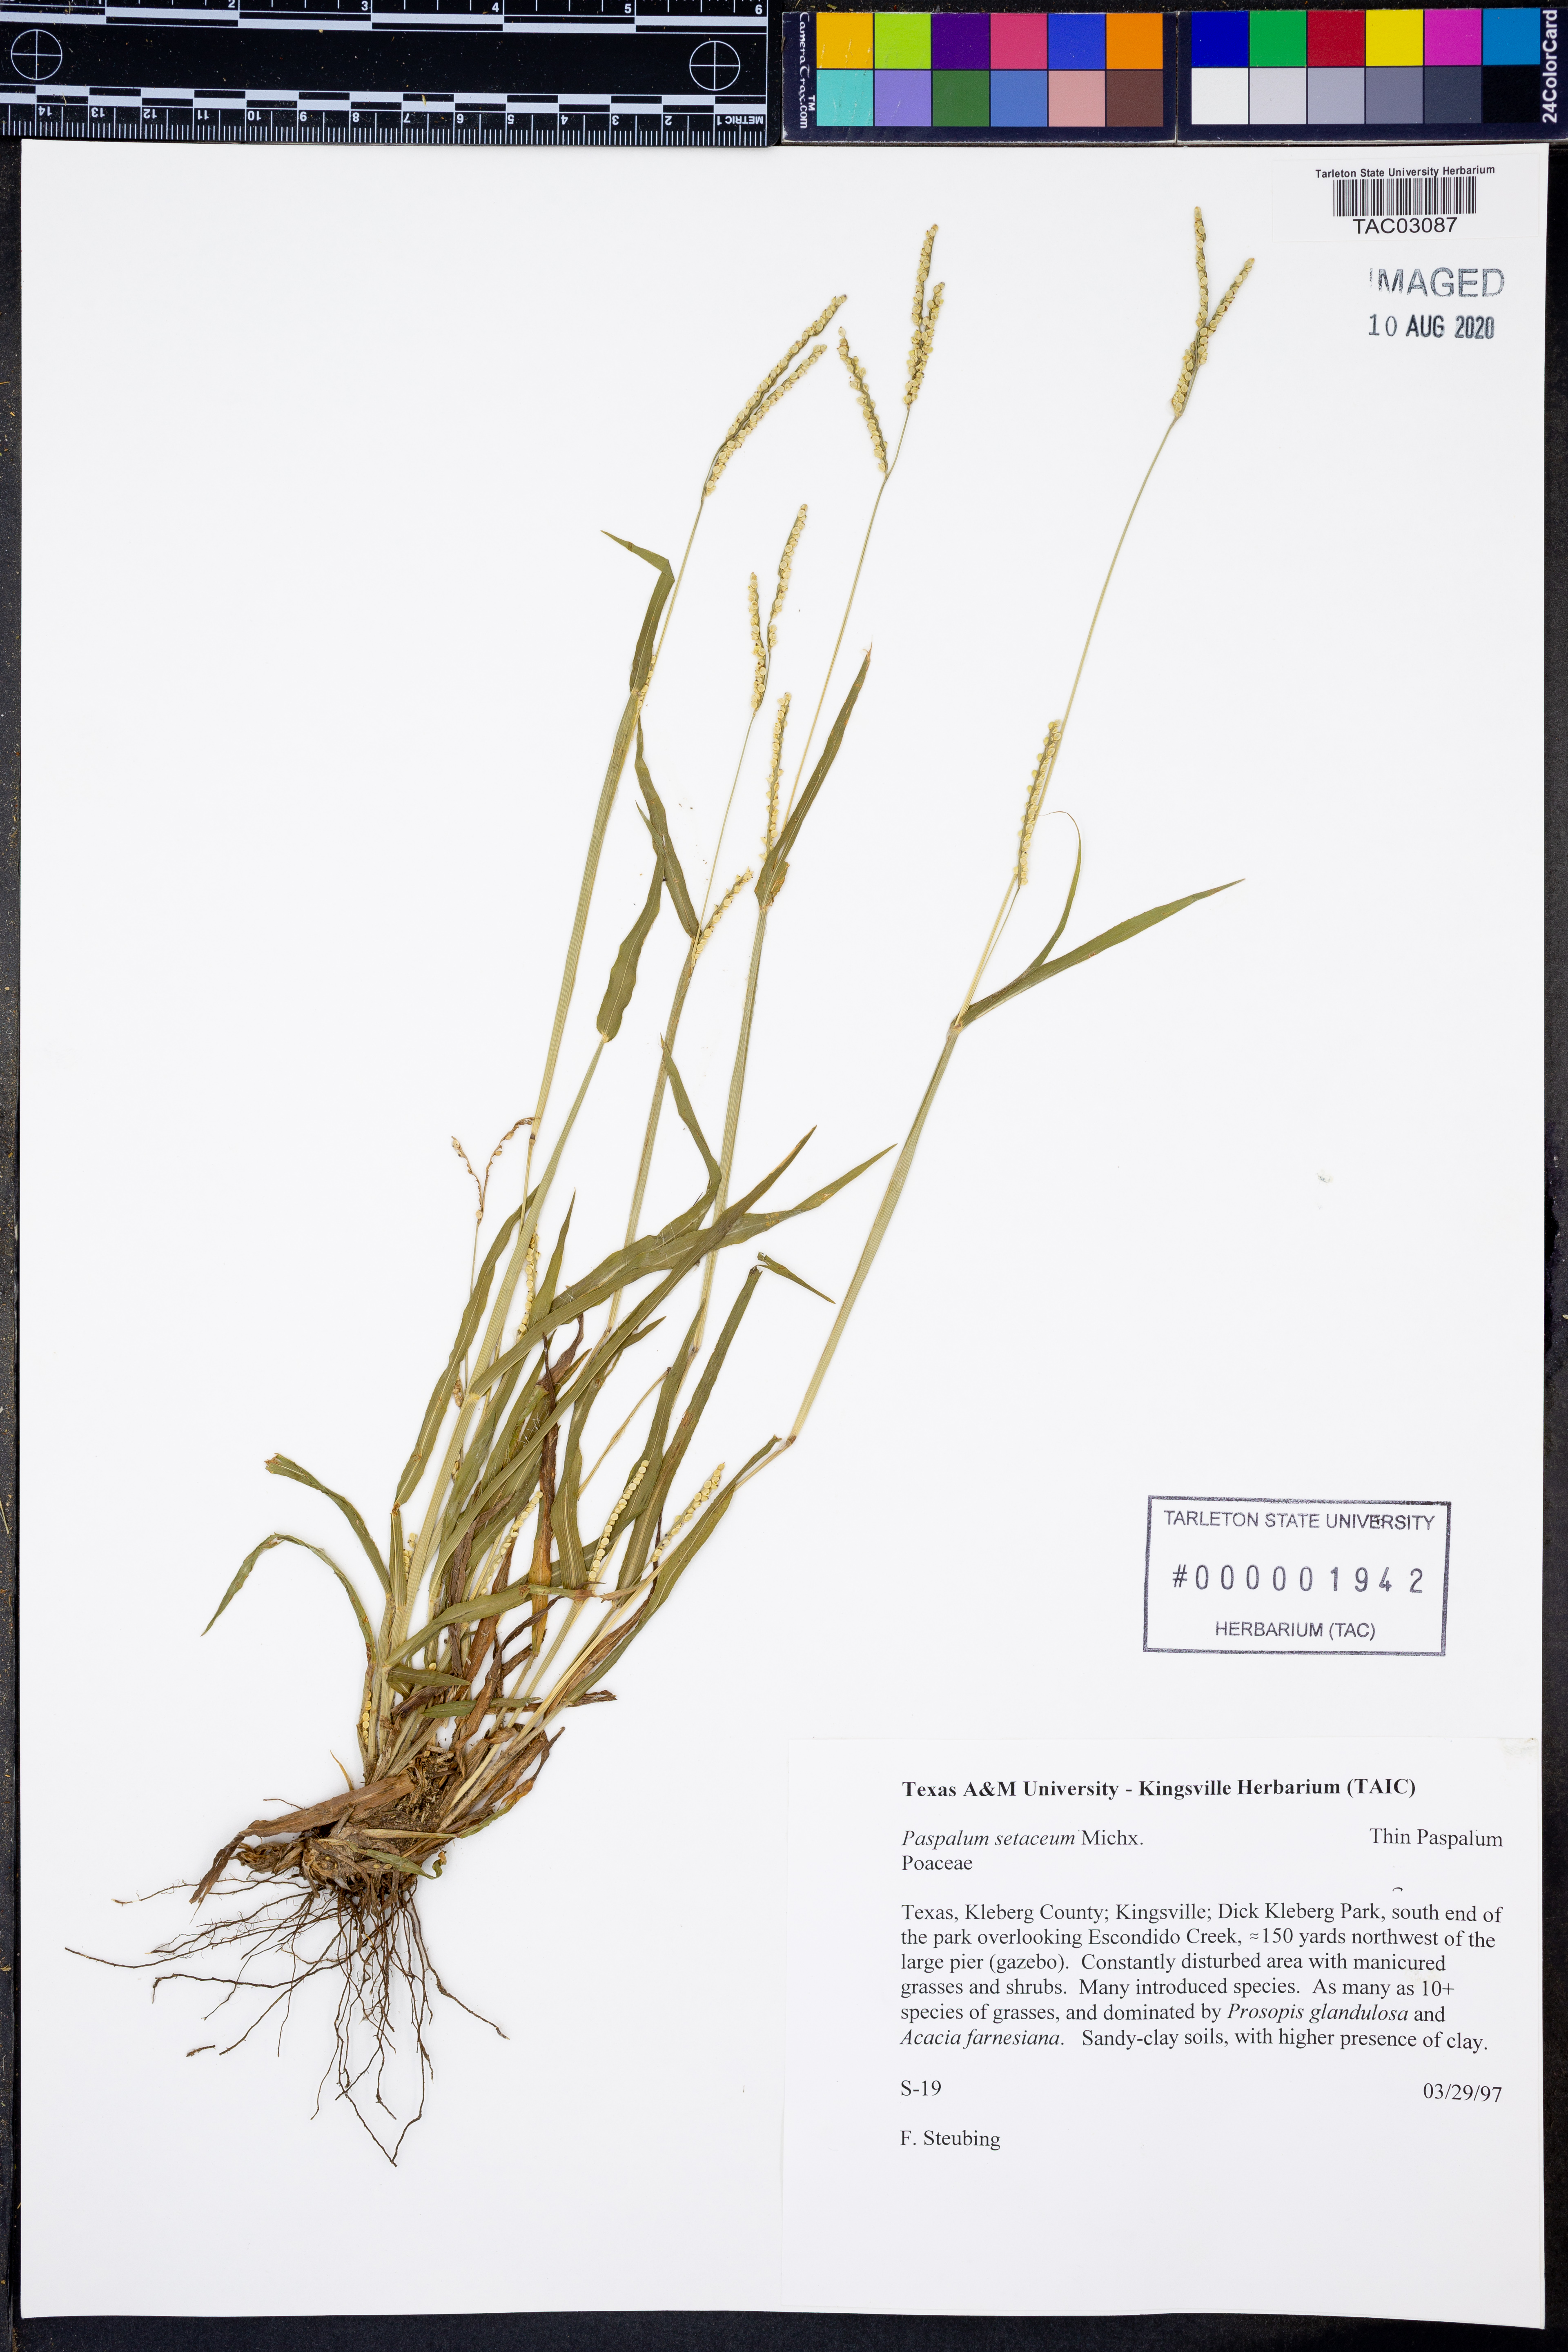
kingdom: Plantae
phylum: Tracheophyta
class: Liliopsida
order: Poales
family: Poaceae
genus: Paspalum
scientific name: Paspalum setaceum
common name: Slender paspalum
